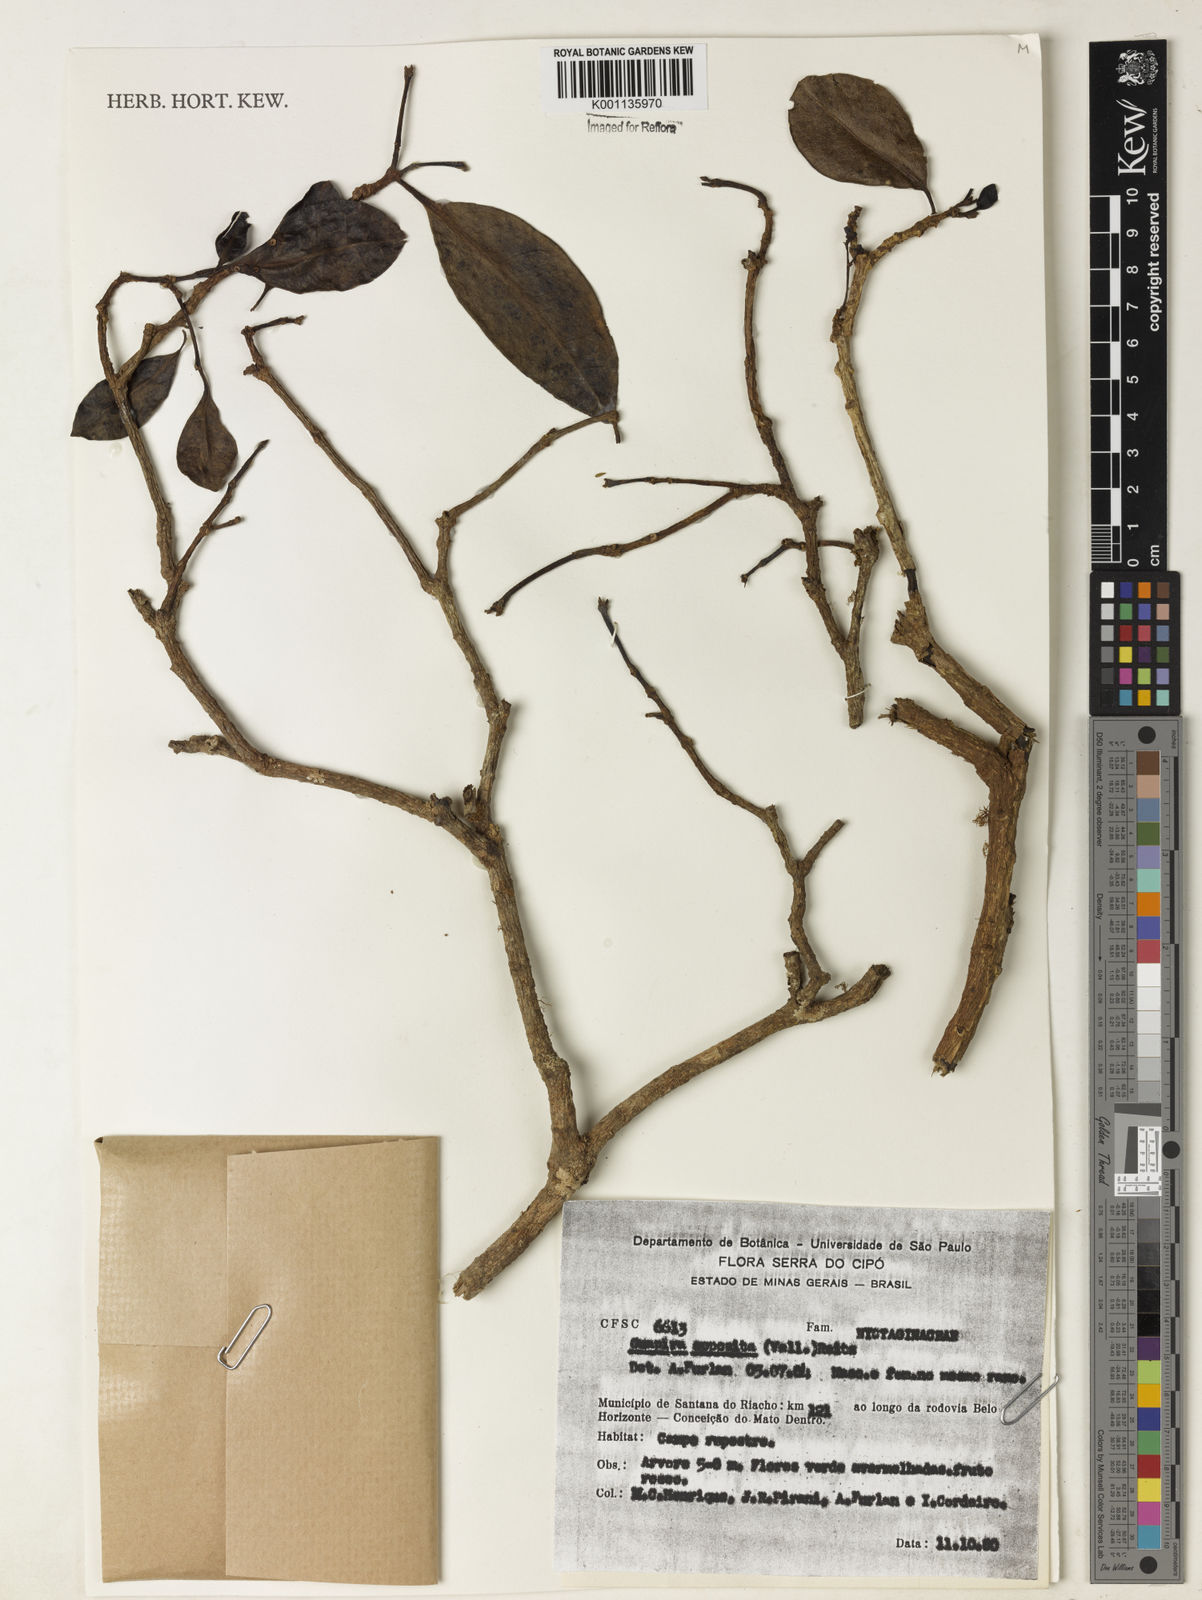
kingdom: Plantae
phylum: Tracheophyta
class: Magnoliopsida
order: Caryophyllales
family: Nyctaginaceae
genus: Guapira
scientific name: Guapira opposita
